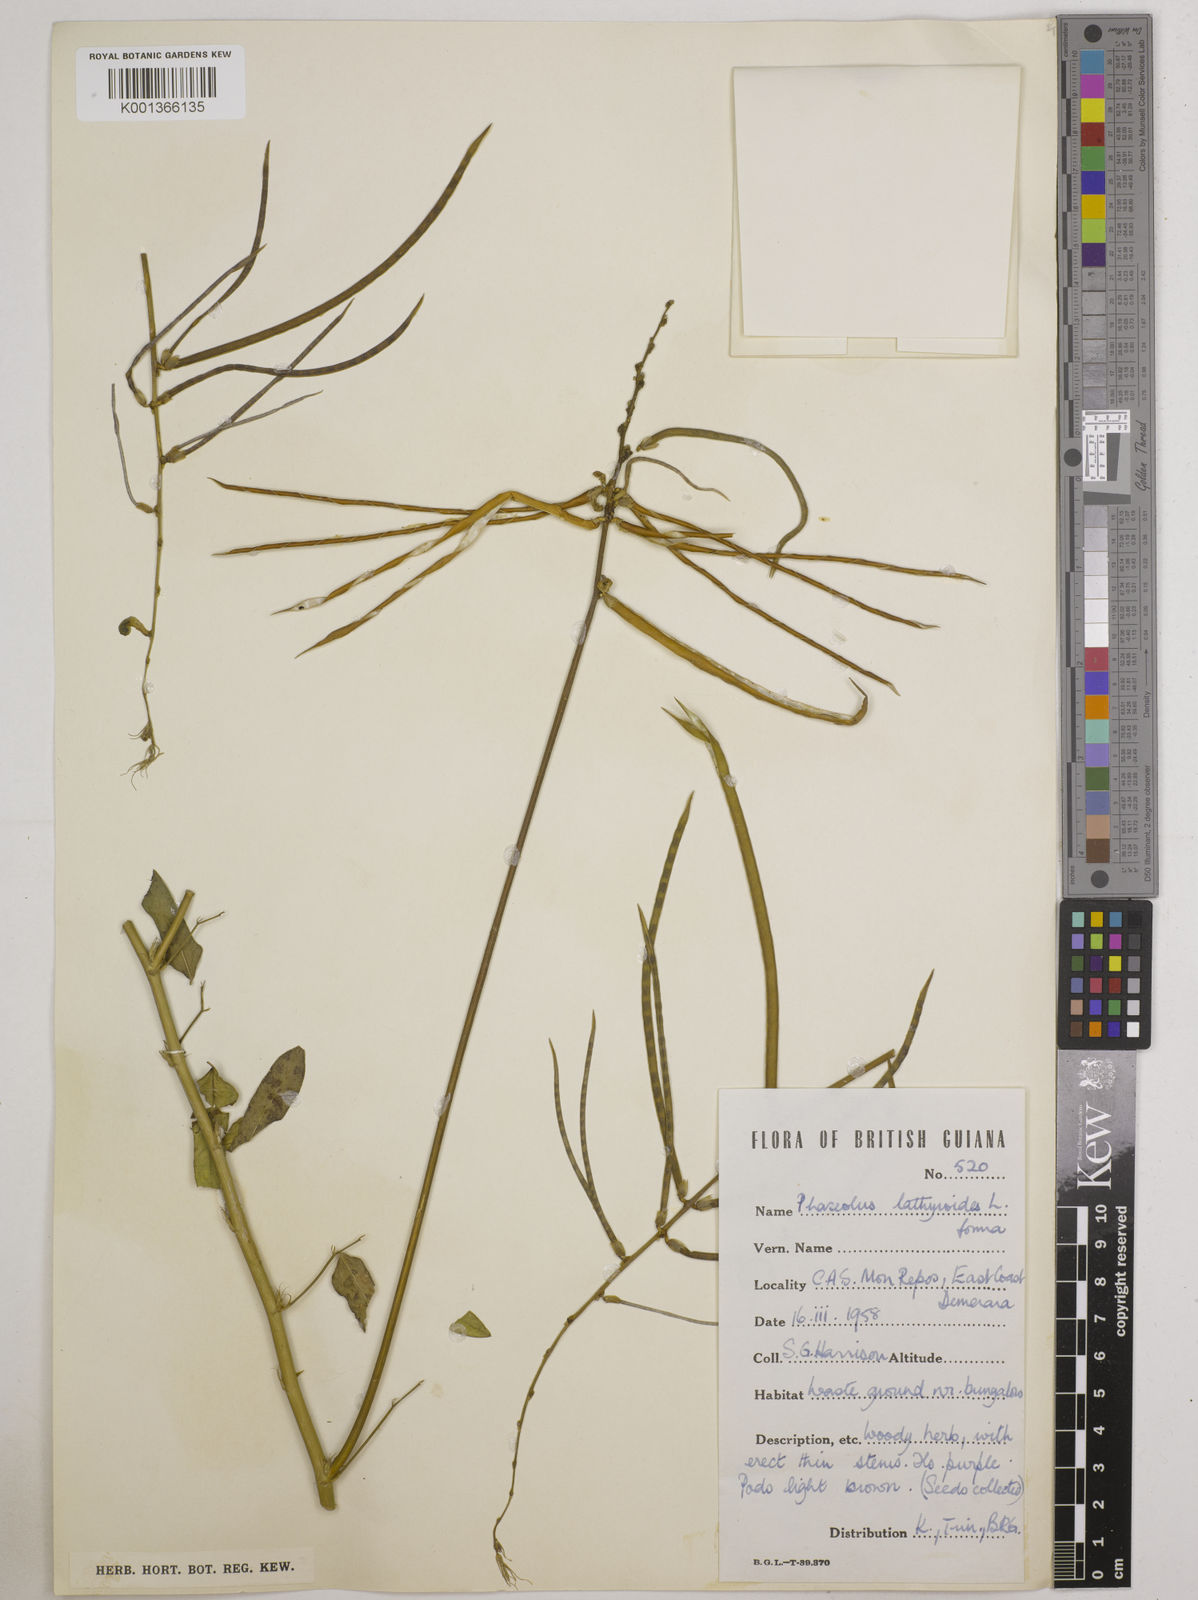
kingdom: Plantae
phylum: Tracheophyta
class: Magnoliopsida
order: Fabales
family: Fabaceae
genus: Macroptilium
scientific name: Macroptilium lathyroides
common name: Wild bushbean
